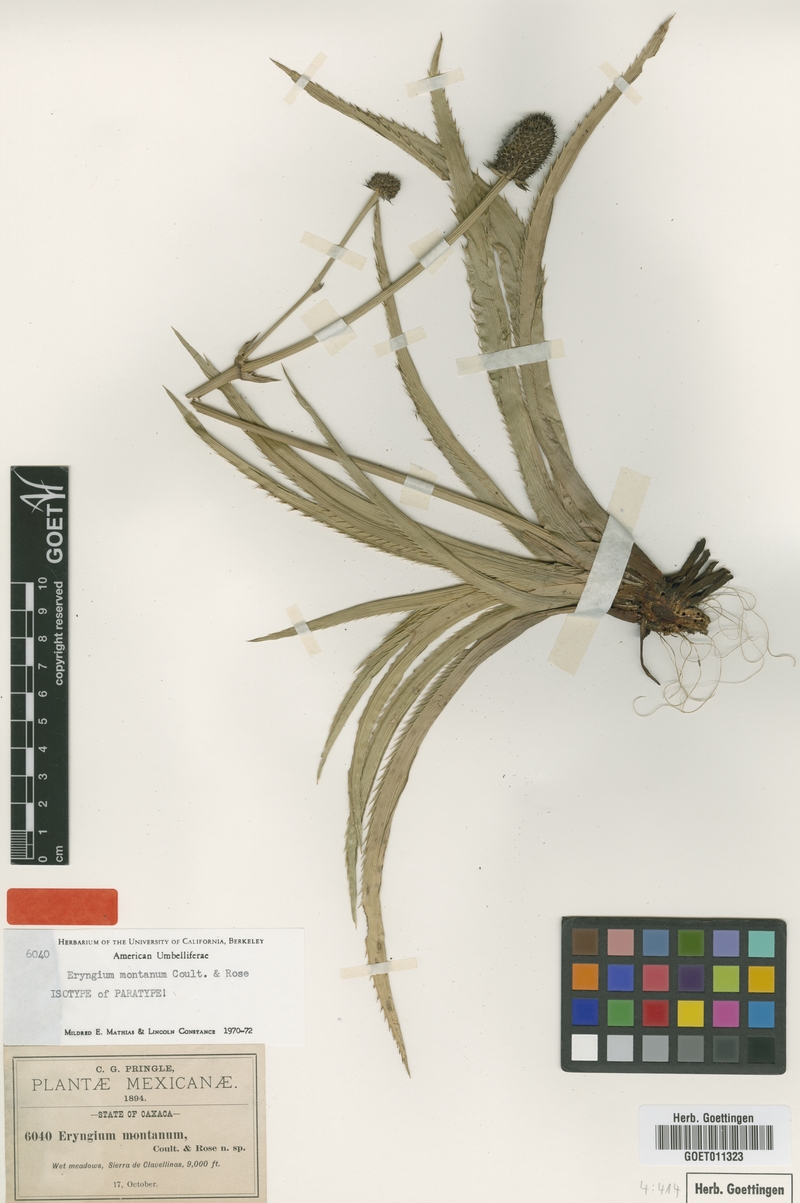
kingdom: Plantae
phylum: Tracheophyta
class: Magnoliopsida
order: Apiales
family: Apiaceae
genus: Eryngium
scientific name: Eryngium montanum
